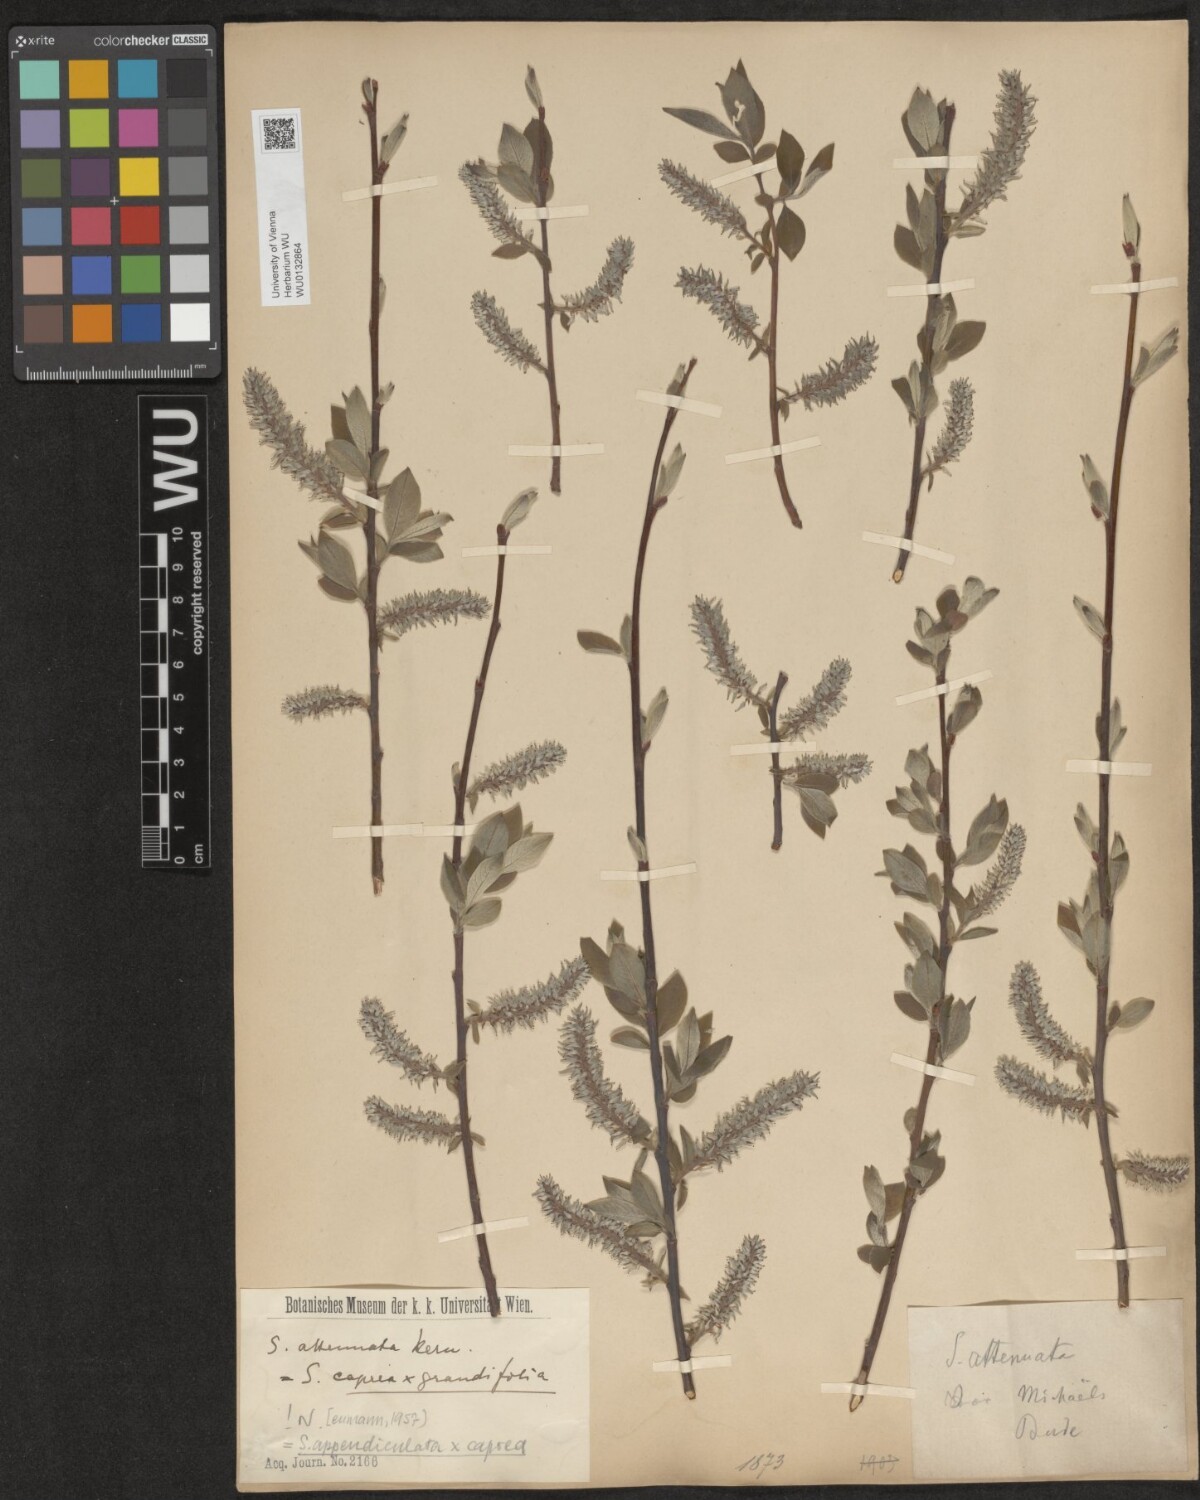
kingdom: Plantae
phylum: Tracheophyta
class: Magnoliopsida
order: Malpighiales
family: Salicaceae
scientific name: Salicaceae
